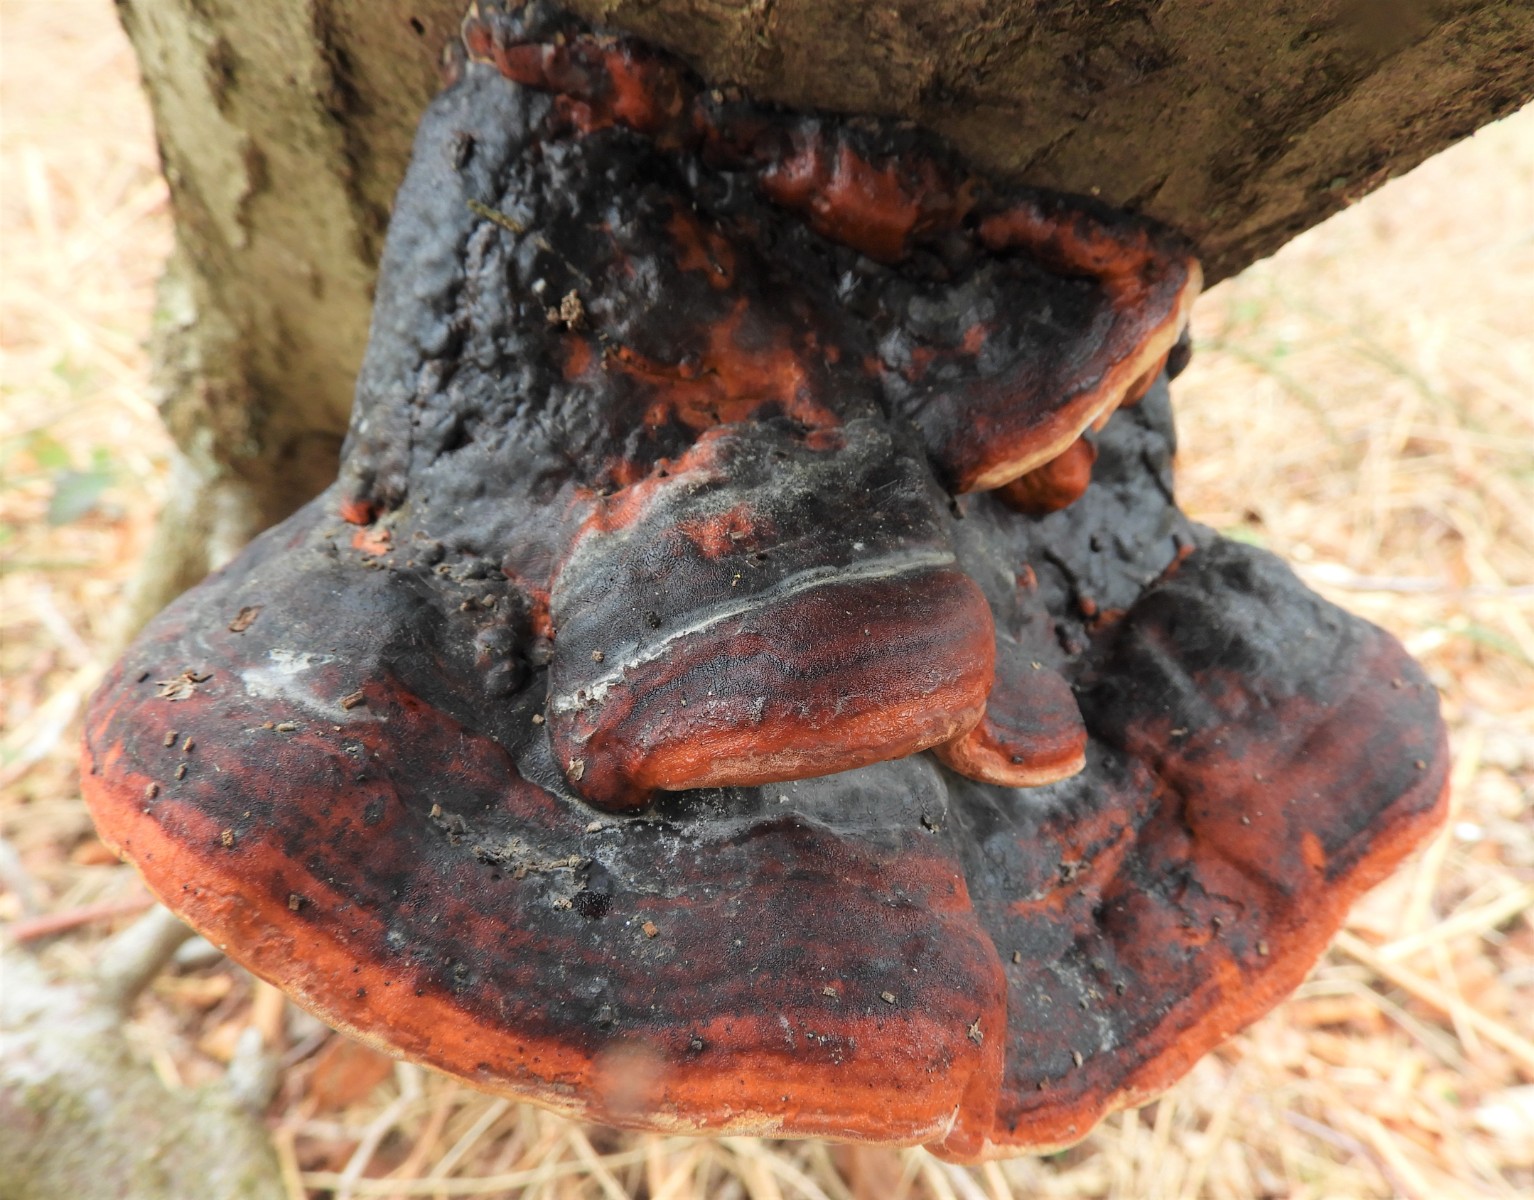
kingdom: Fungi
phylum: Basidiomycota
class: Agaricomycetes
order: Polyporales
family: Fomitopsidaceae
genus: Fomitopsis
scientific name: Fomitopsis pinicola
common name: randbæltet hovporesvamp
